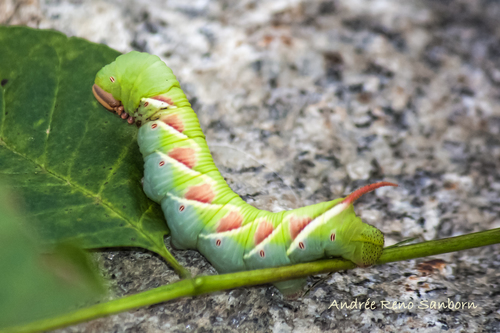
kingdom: Animalia
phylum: Arthropoda
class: Insecta
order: Lepidoptera
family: Sphingidae
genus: Ceratomia
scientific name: Ceratomia undulosa
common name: Waved sphinx
